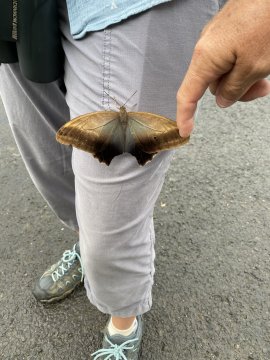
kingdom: Animalia
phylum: Arthropoda
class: Insecta
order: Lepidoptera
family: Nymphalidae
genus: Caligo
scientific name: Caligo illioneus
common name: Dusky Owl-Butterfly
